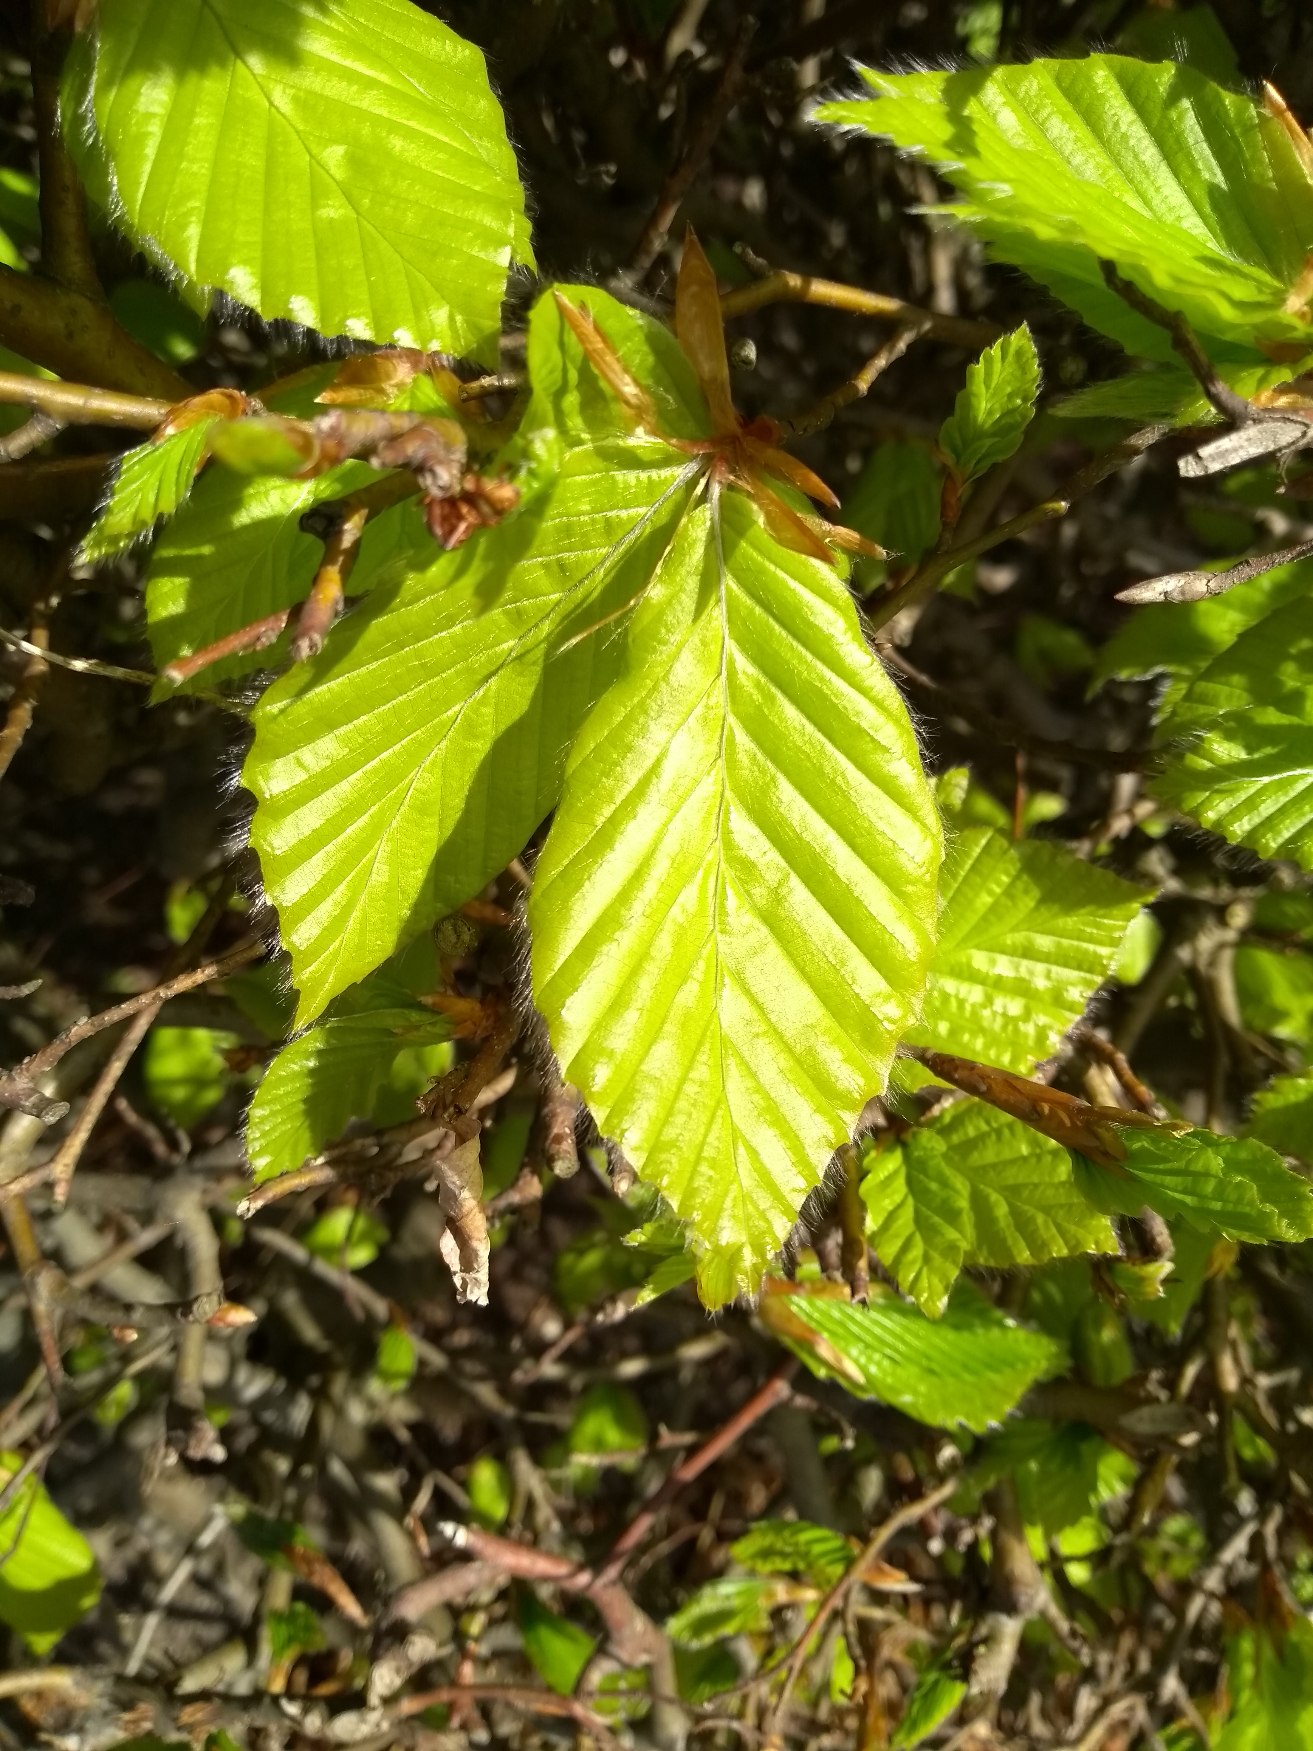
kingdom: Plantae
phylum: Tracheophyta
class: Magnoliopsida
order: Fagales
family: Fagaceae
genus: Fagus
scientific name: Fagus sylvatica
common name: Bøg
